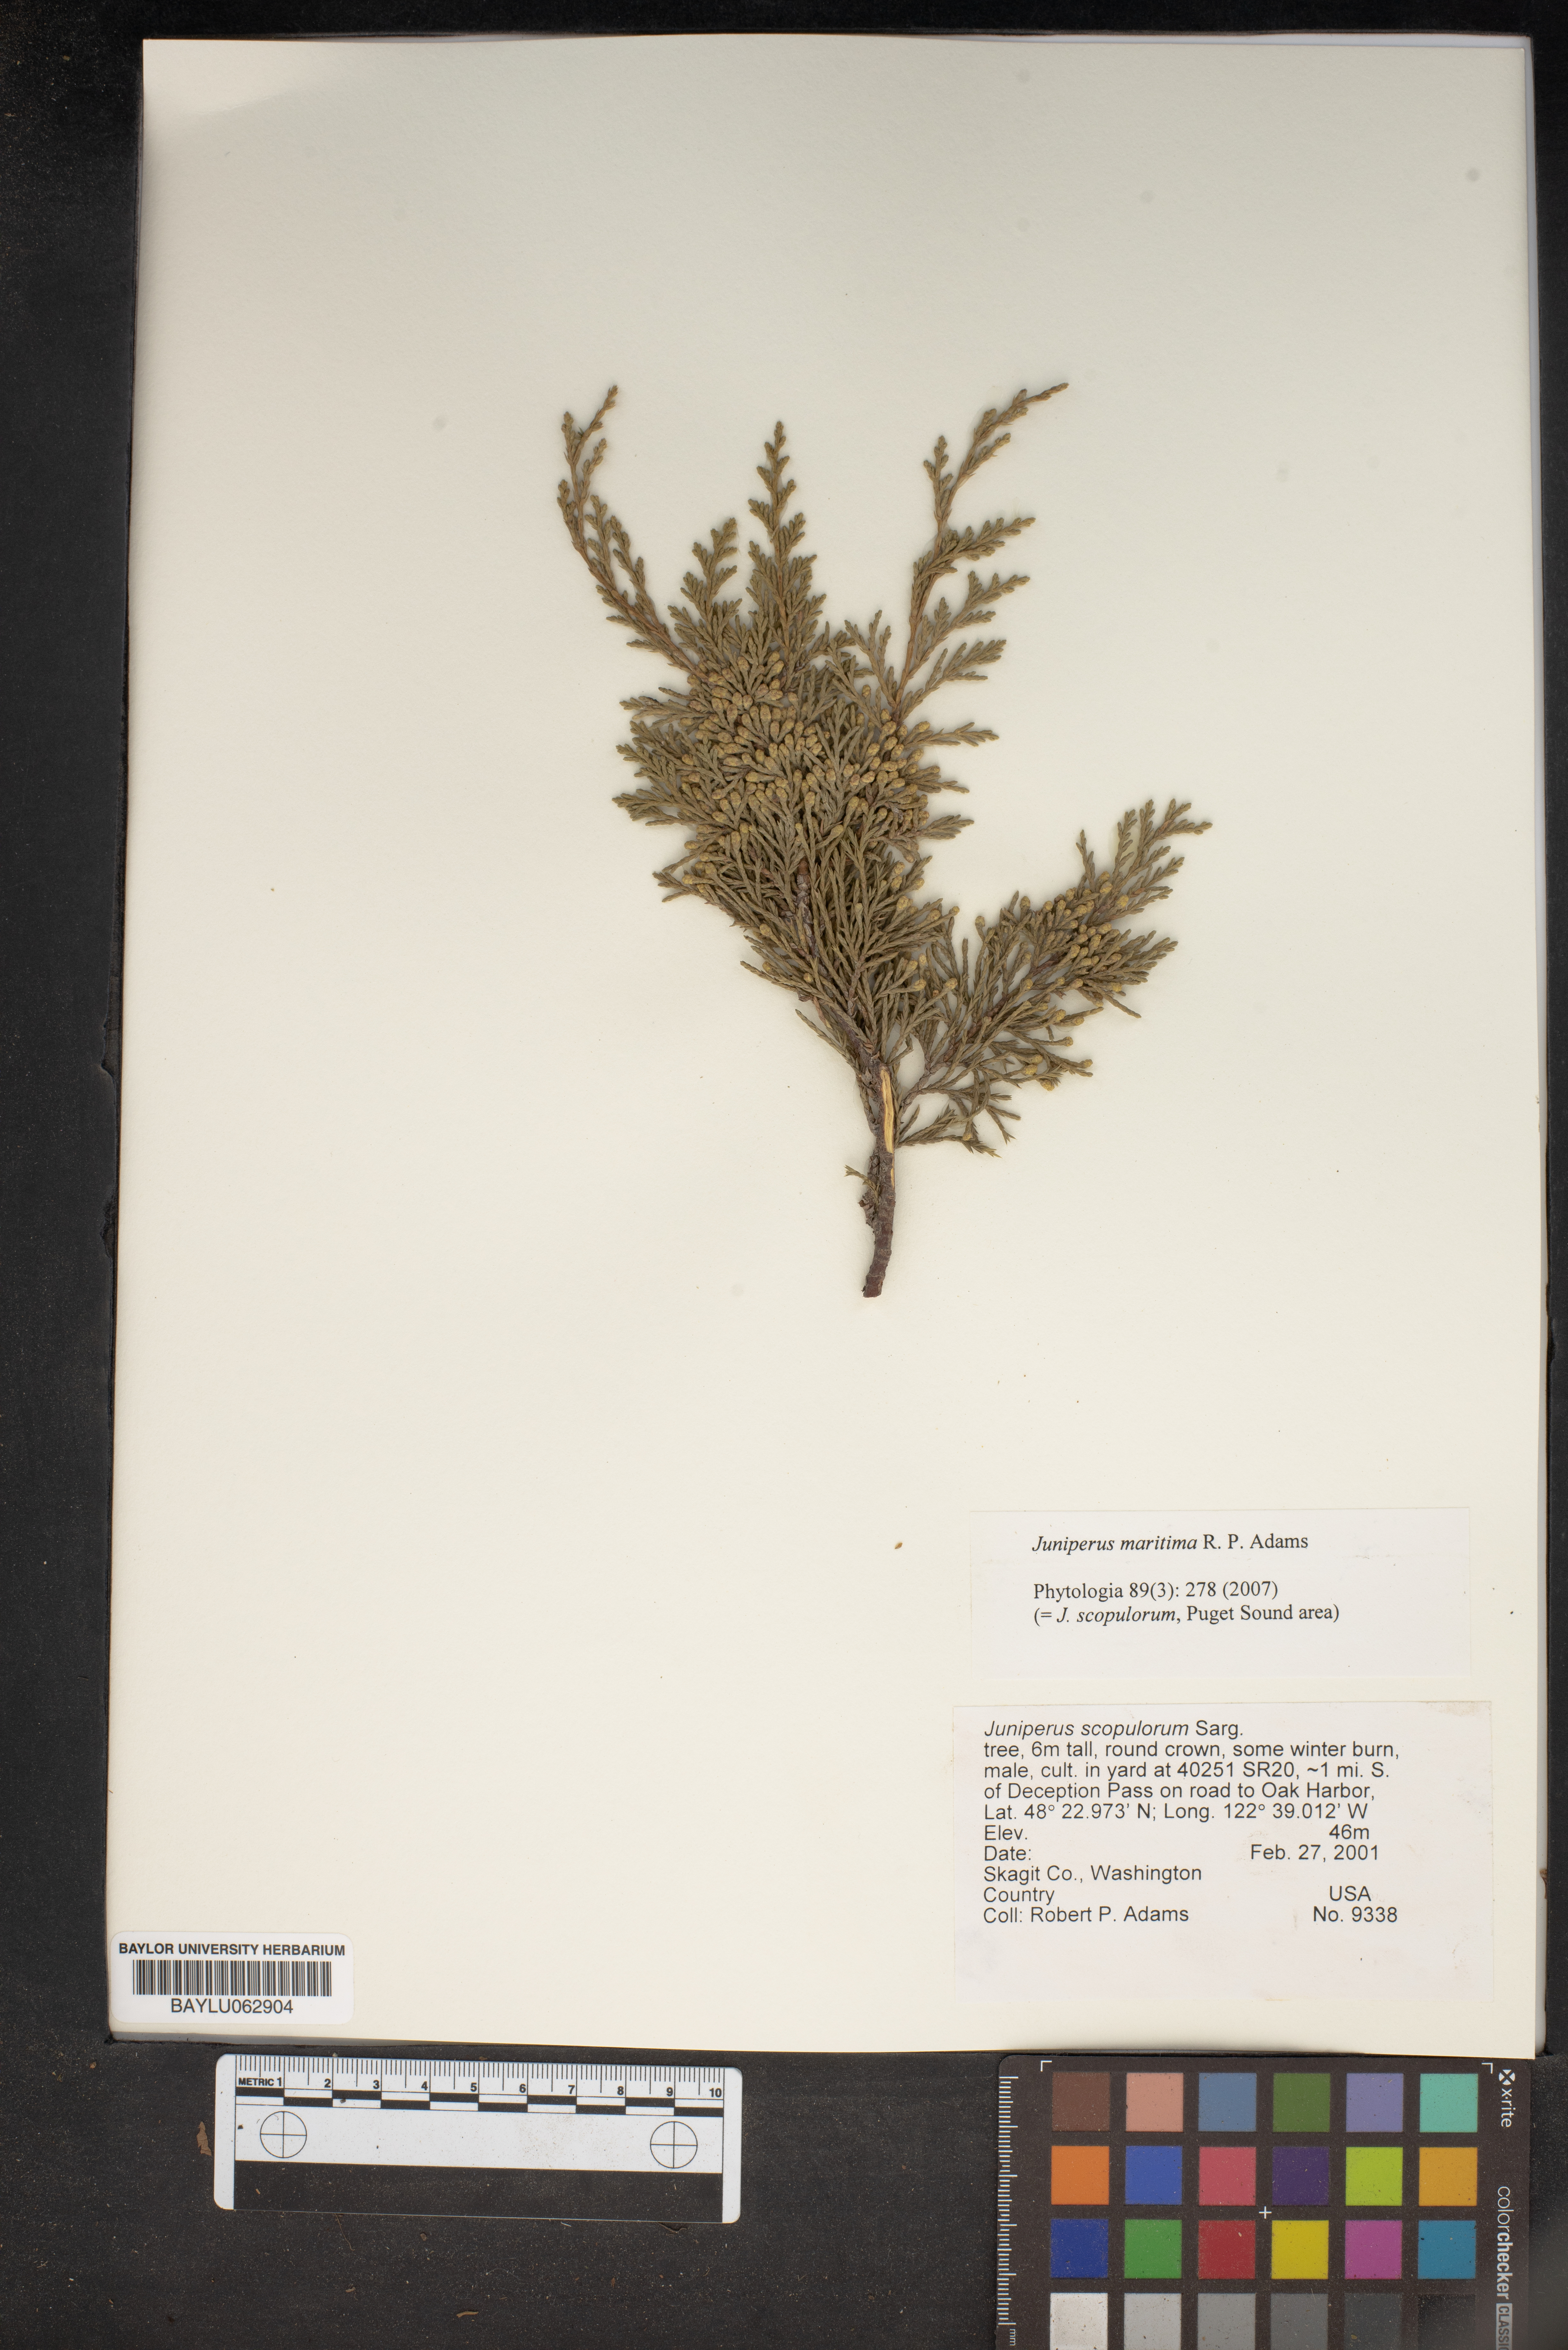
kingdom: Plantae
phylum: Tracheophyta
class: Pinopsida
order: Pinales
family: Cupressaceae
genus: Juniperus
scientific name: Juniperus scopulorum
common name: Rocky mountain juniper
